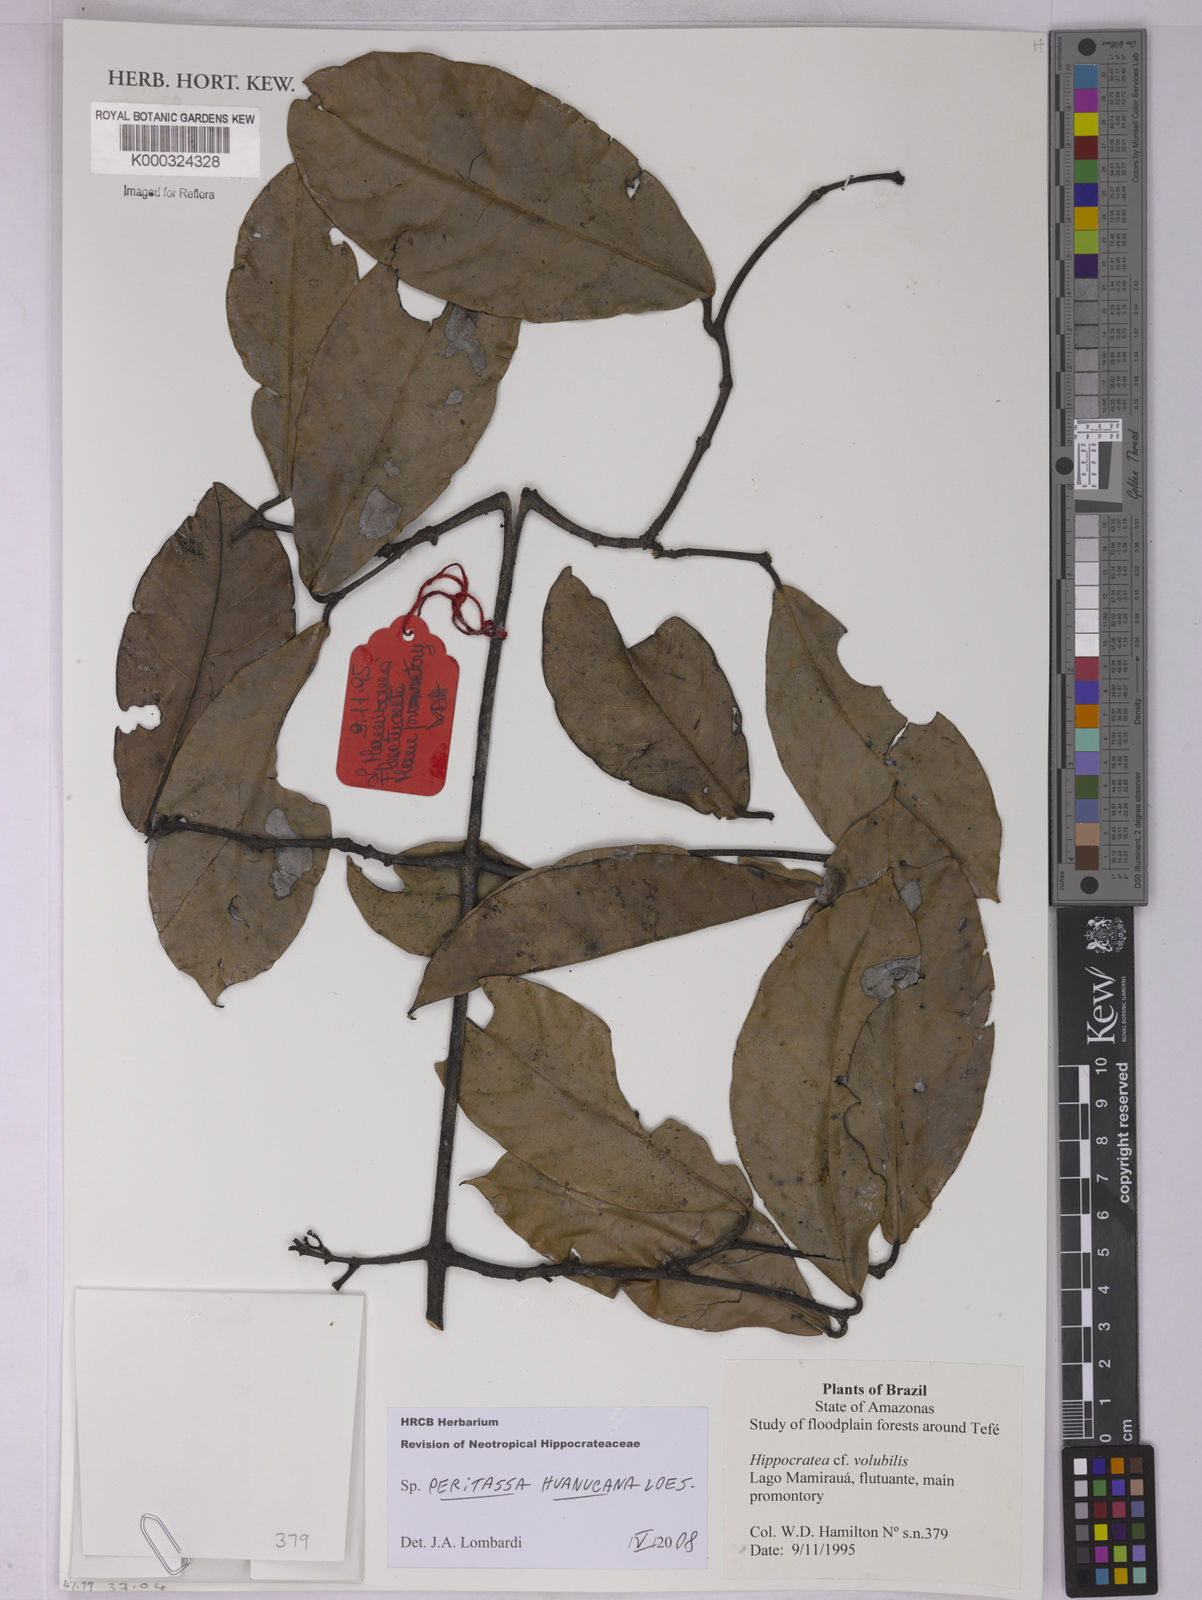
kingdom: Plantae
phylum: Tracheophyta
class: Magnoliopsida
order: Celastrales
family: Celastraceae
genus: Peritassa
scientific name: Peritassa huanucana
